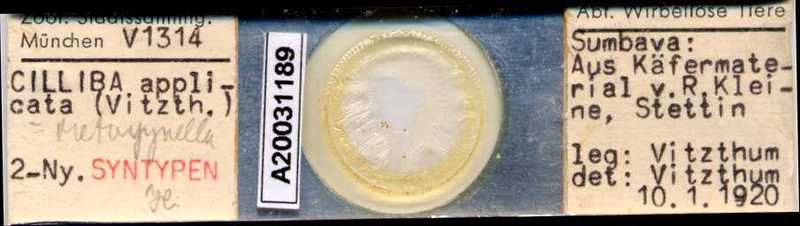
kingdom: Animalia
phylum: Arthropoda
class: Arachnida
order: Mesostigmata
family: Uropodidae
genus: Cilliba
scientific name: Cilliba
